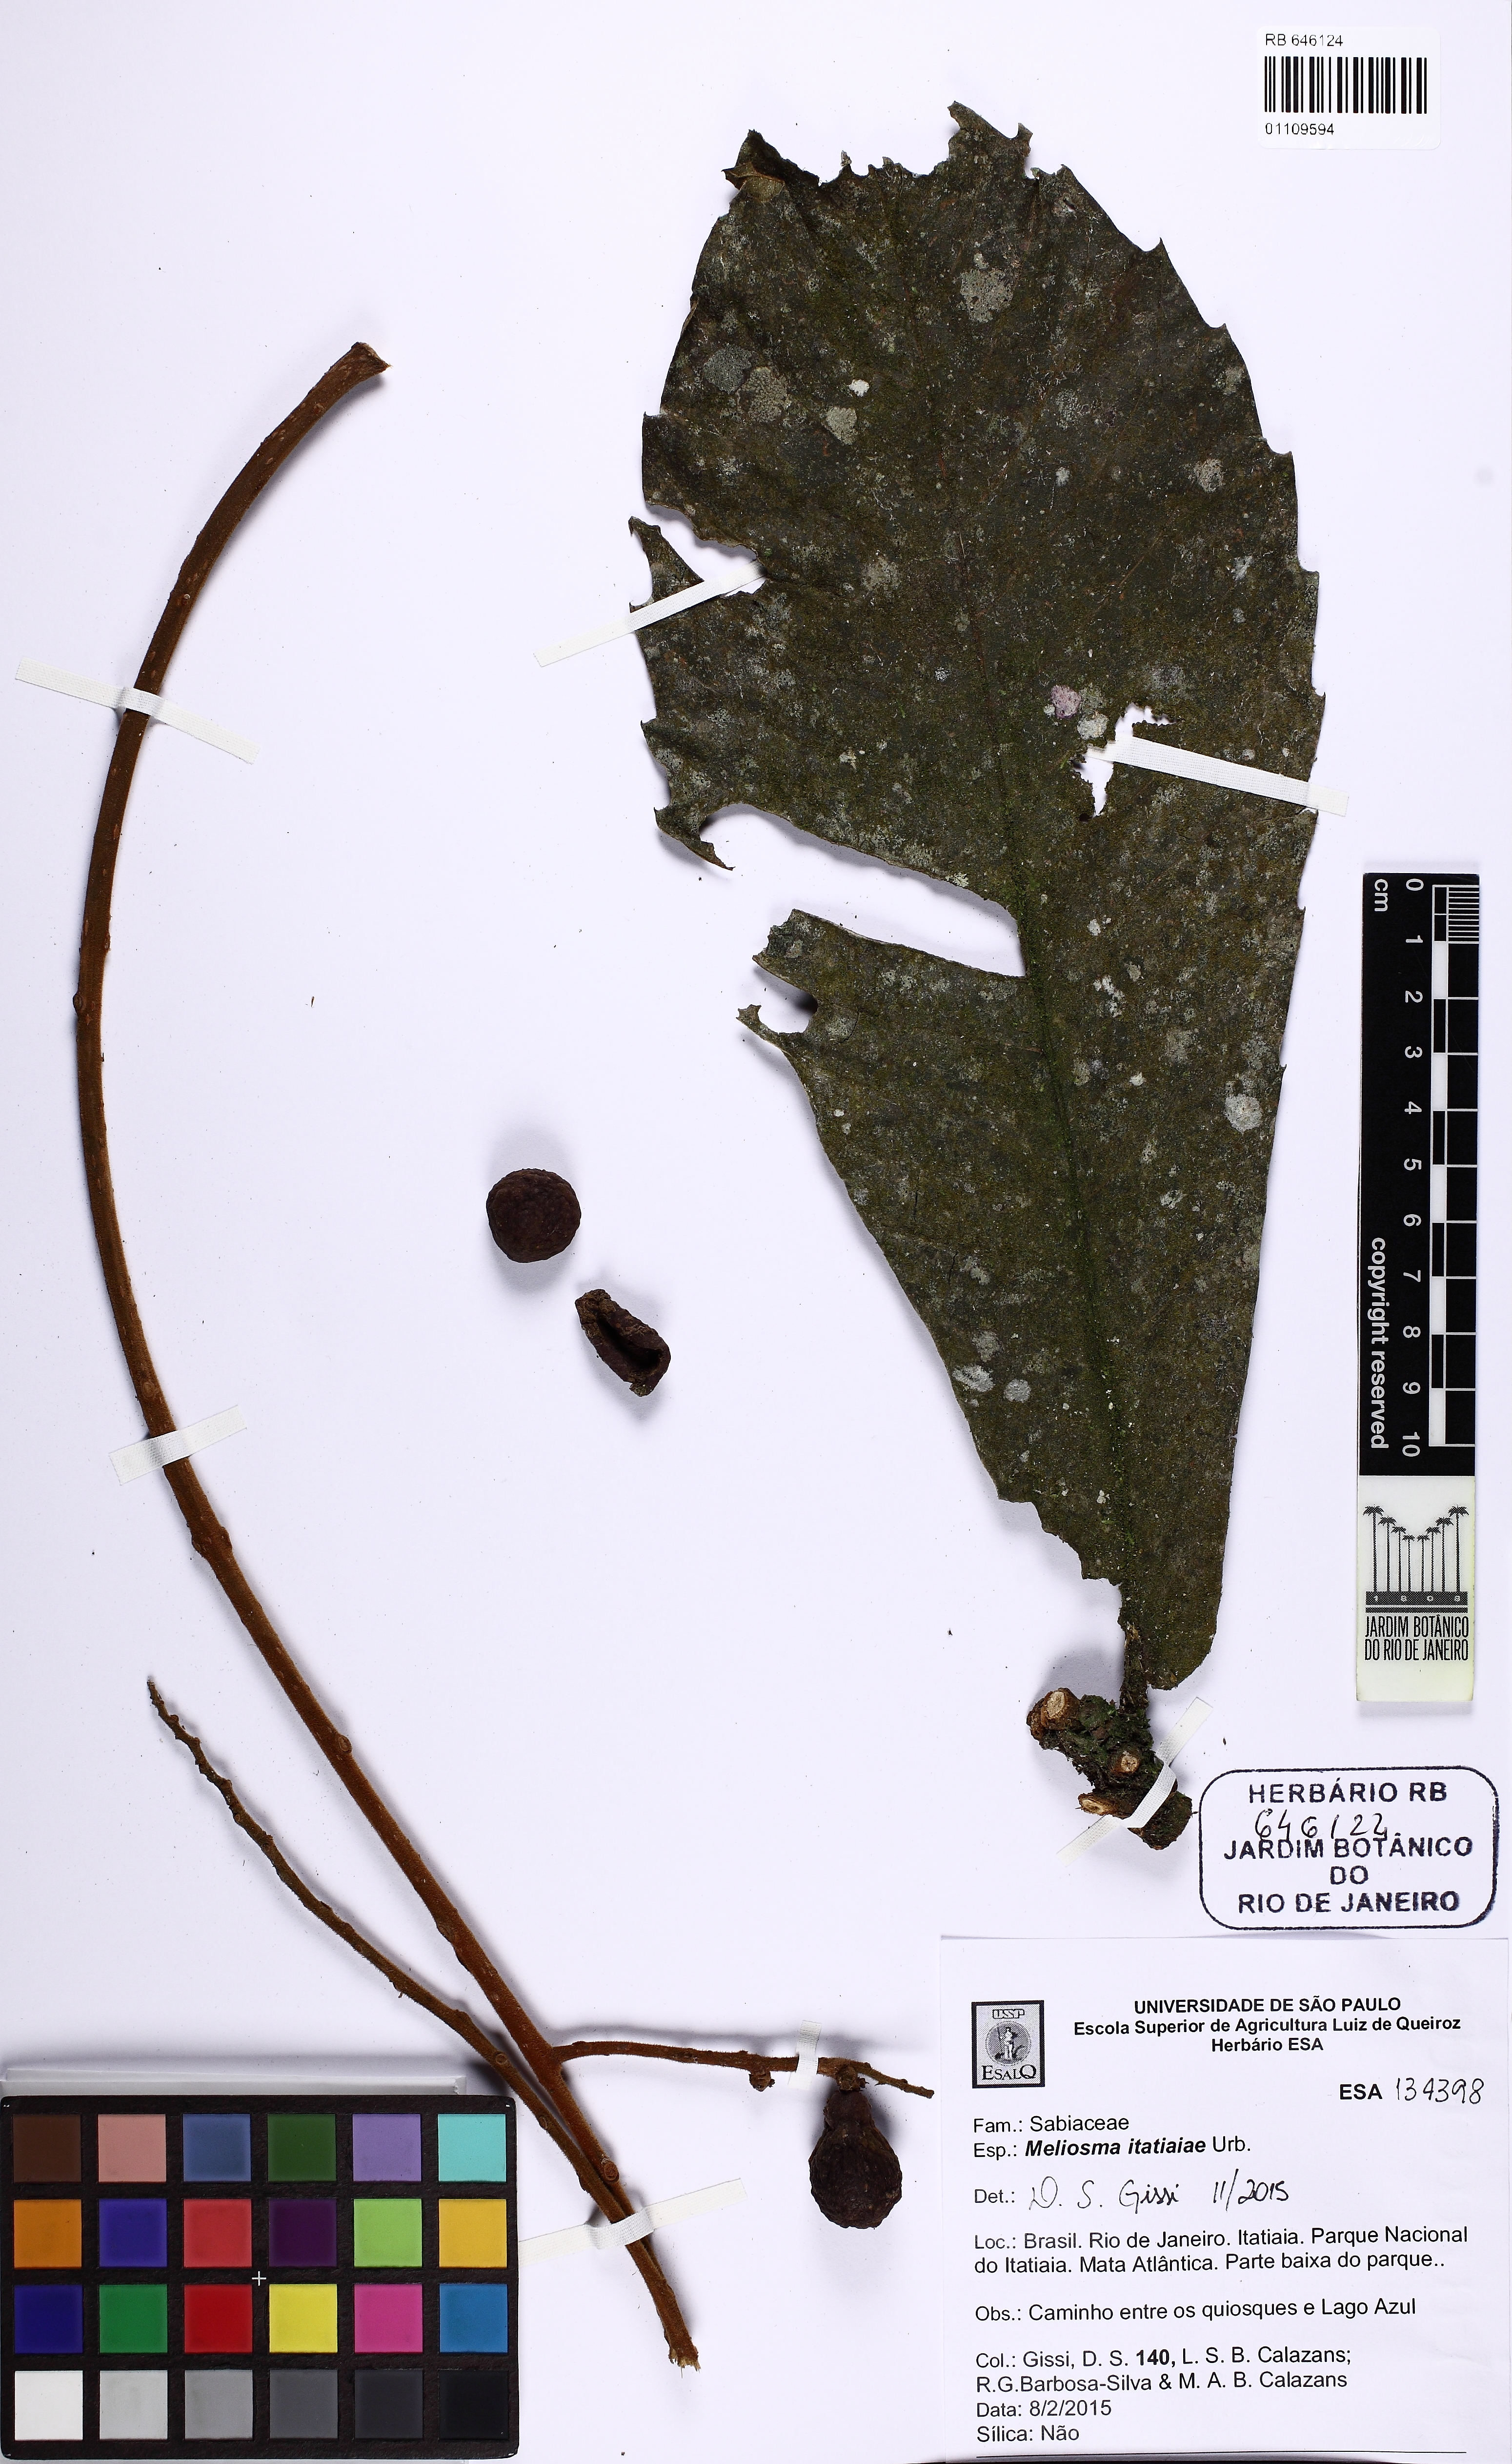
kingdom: Plantae
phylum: Tracheophyta
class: Magnoliopsida
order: Proteales
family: Sabiaceae
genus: Meliosma
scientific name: Meliosma itatiaiae
